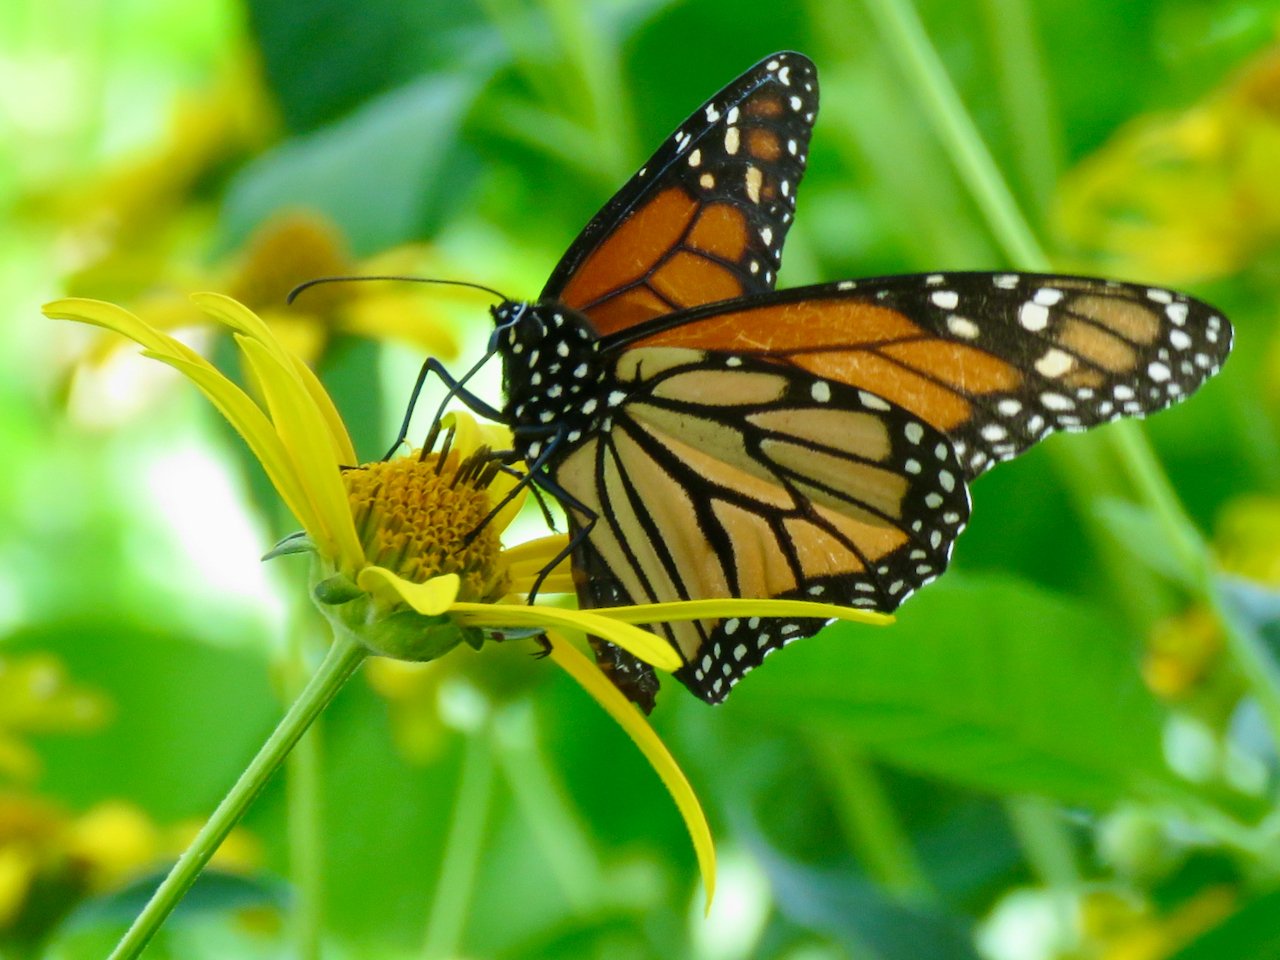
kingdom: Animalia
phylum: Arthropoda
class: Insecta
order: Lepidoptera
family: Nymphalidae
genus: Danaus
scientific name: Danaus plexippus
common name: Monarch
